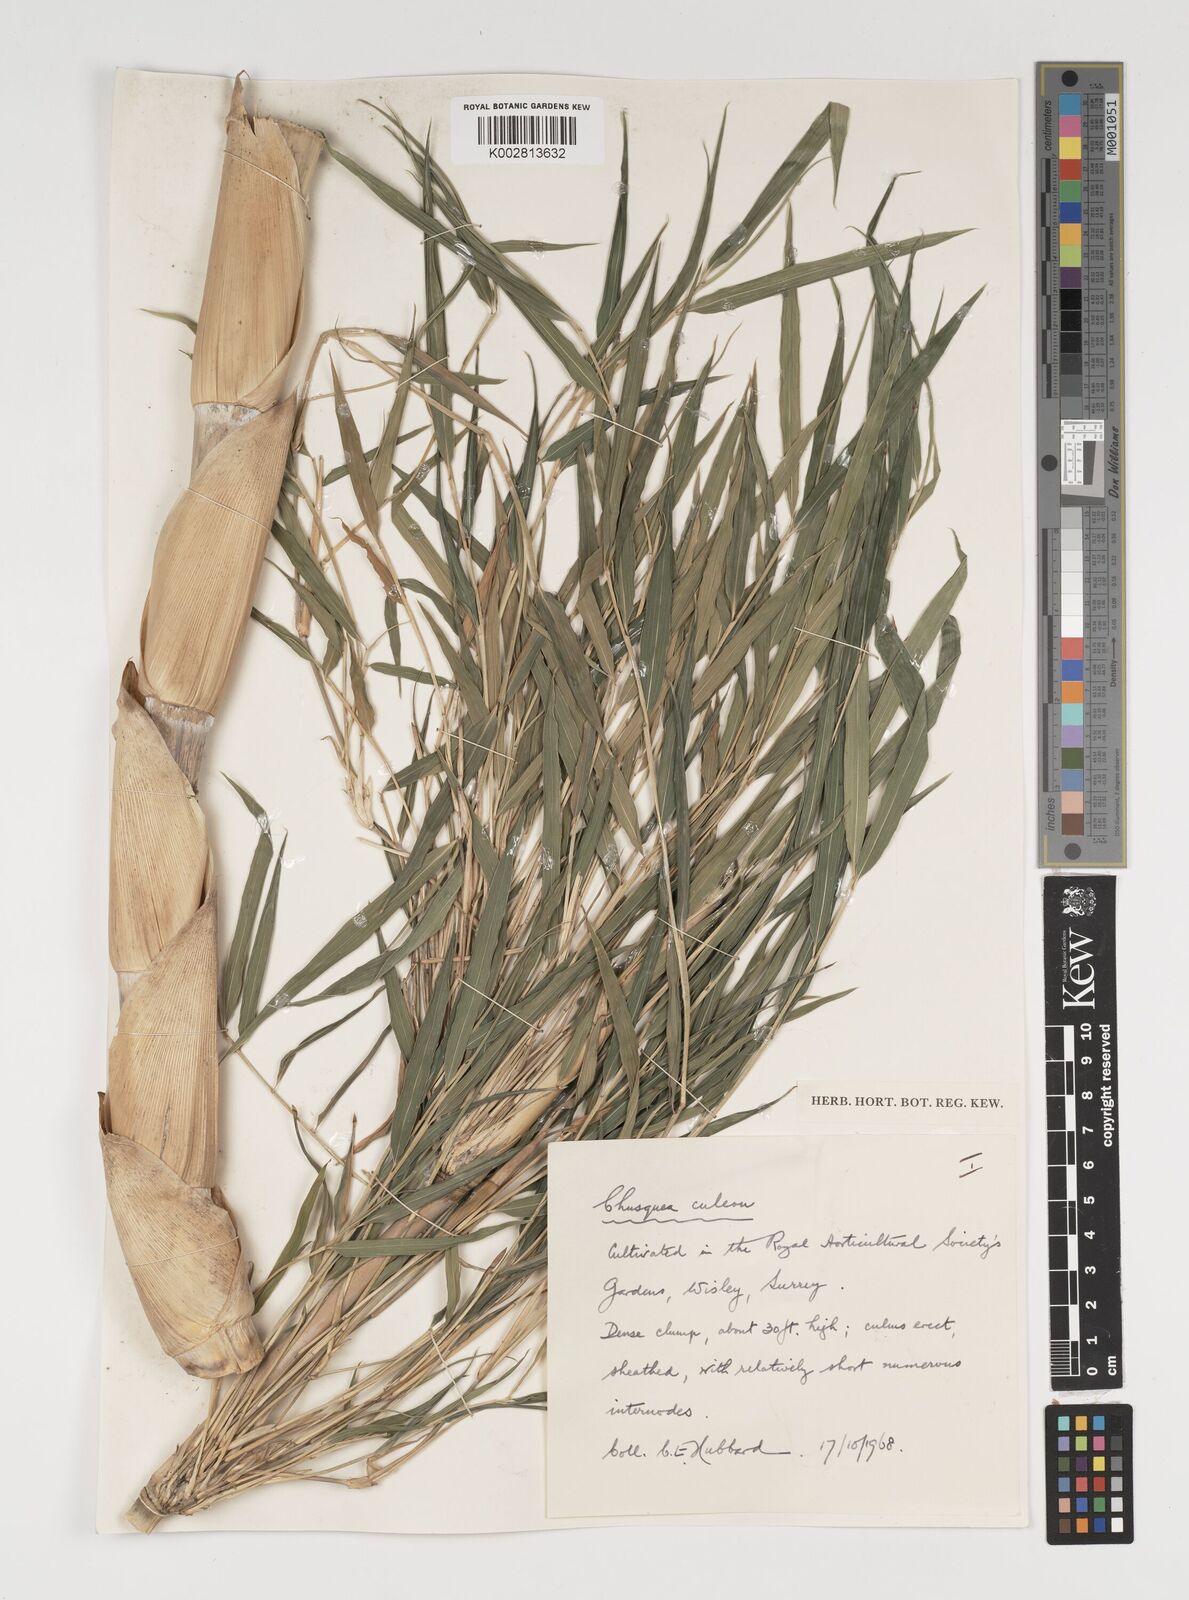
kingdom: Plantae
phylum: Tracheophyta
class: Liliopsida
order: Poales
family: Poaceae
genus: Chusquea
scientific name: Chusquea culeou
